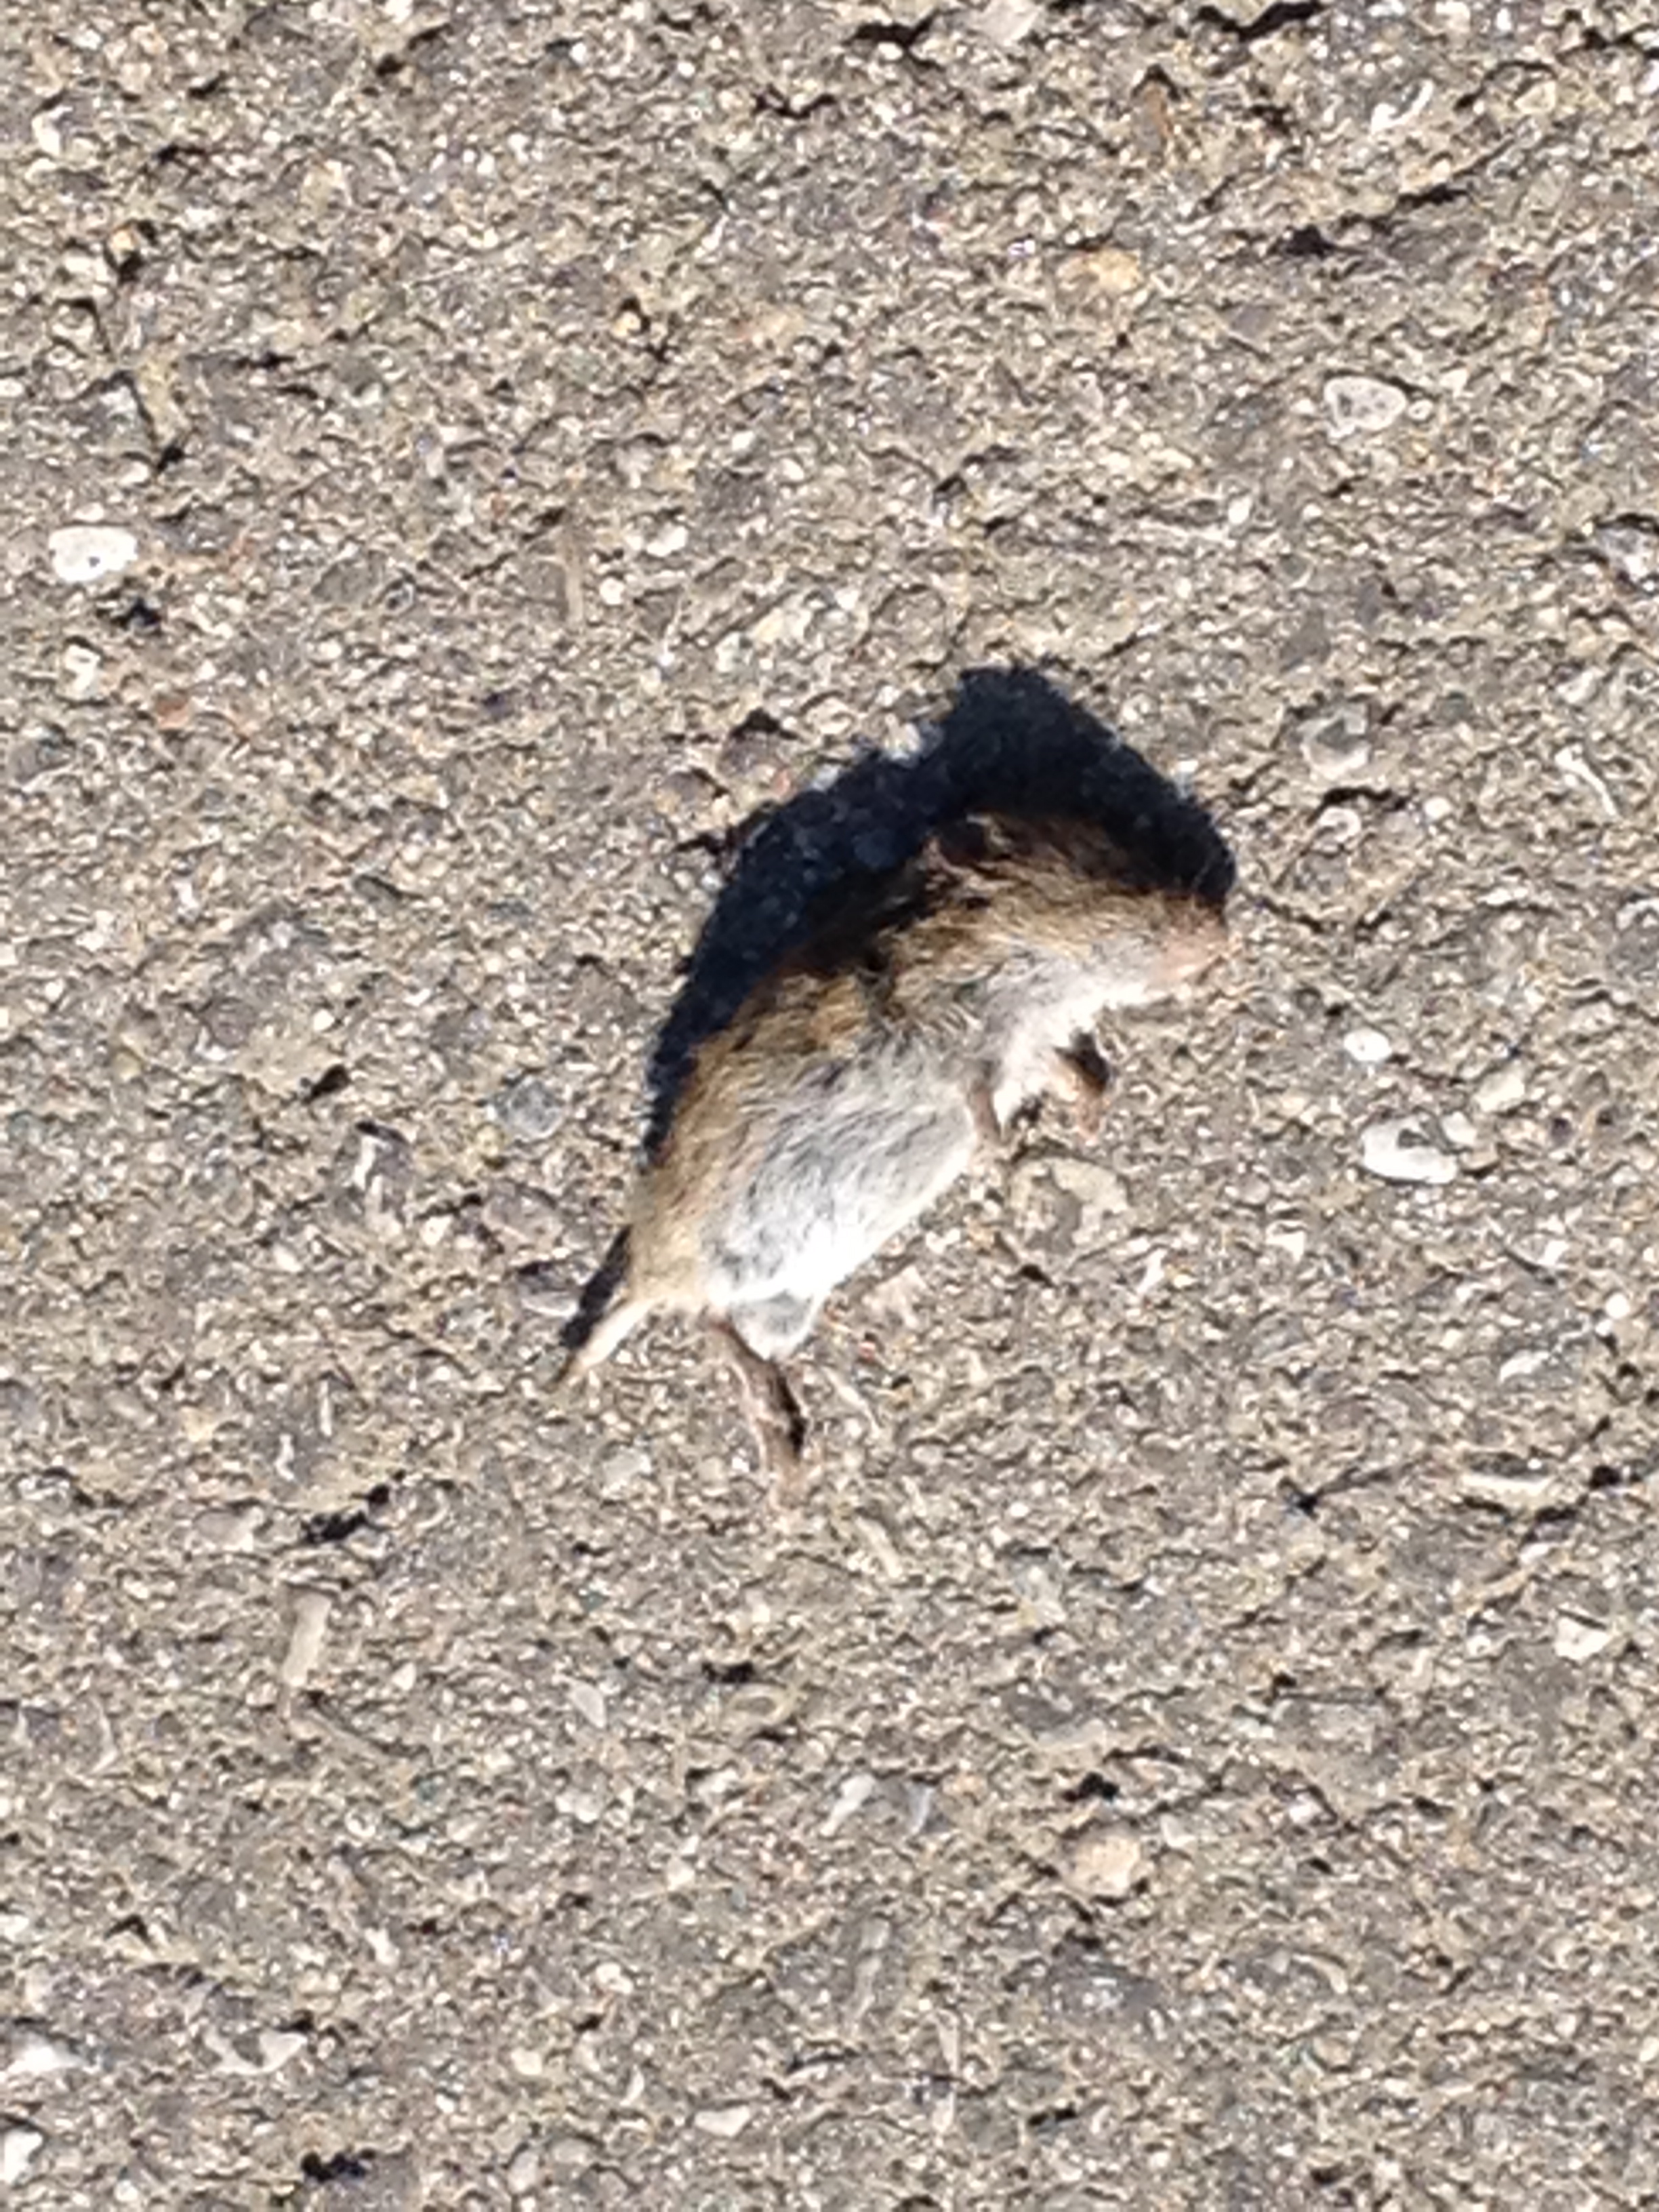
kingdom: Animalia
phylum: Chordata
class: Mammalia
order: Rodentia
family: Cricetidae
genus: Microtus
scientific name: Microtus
